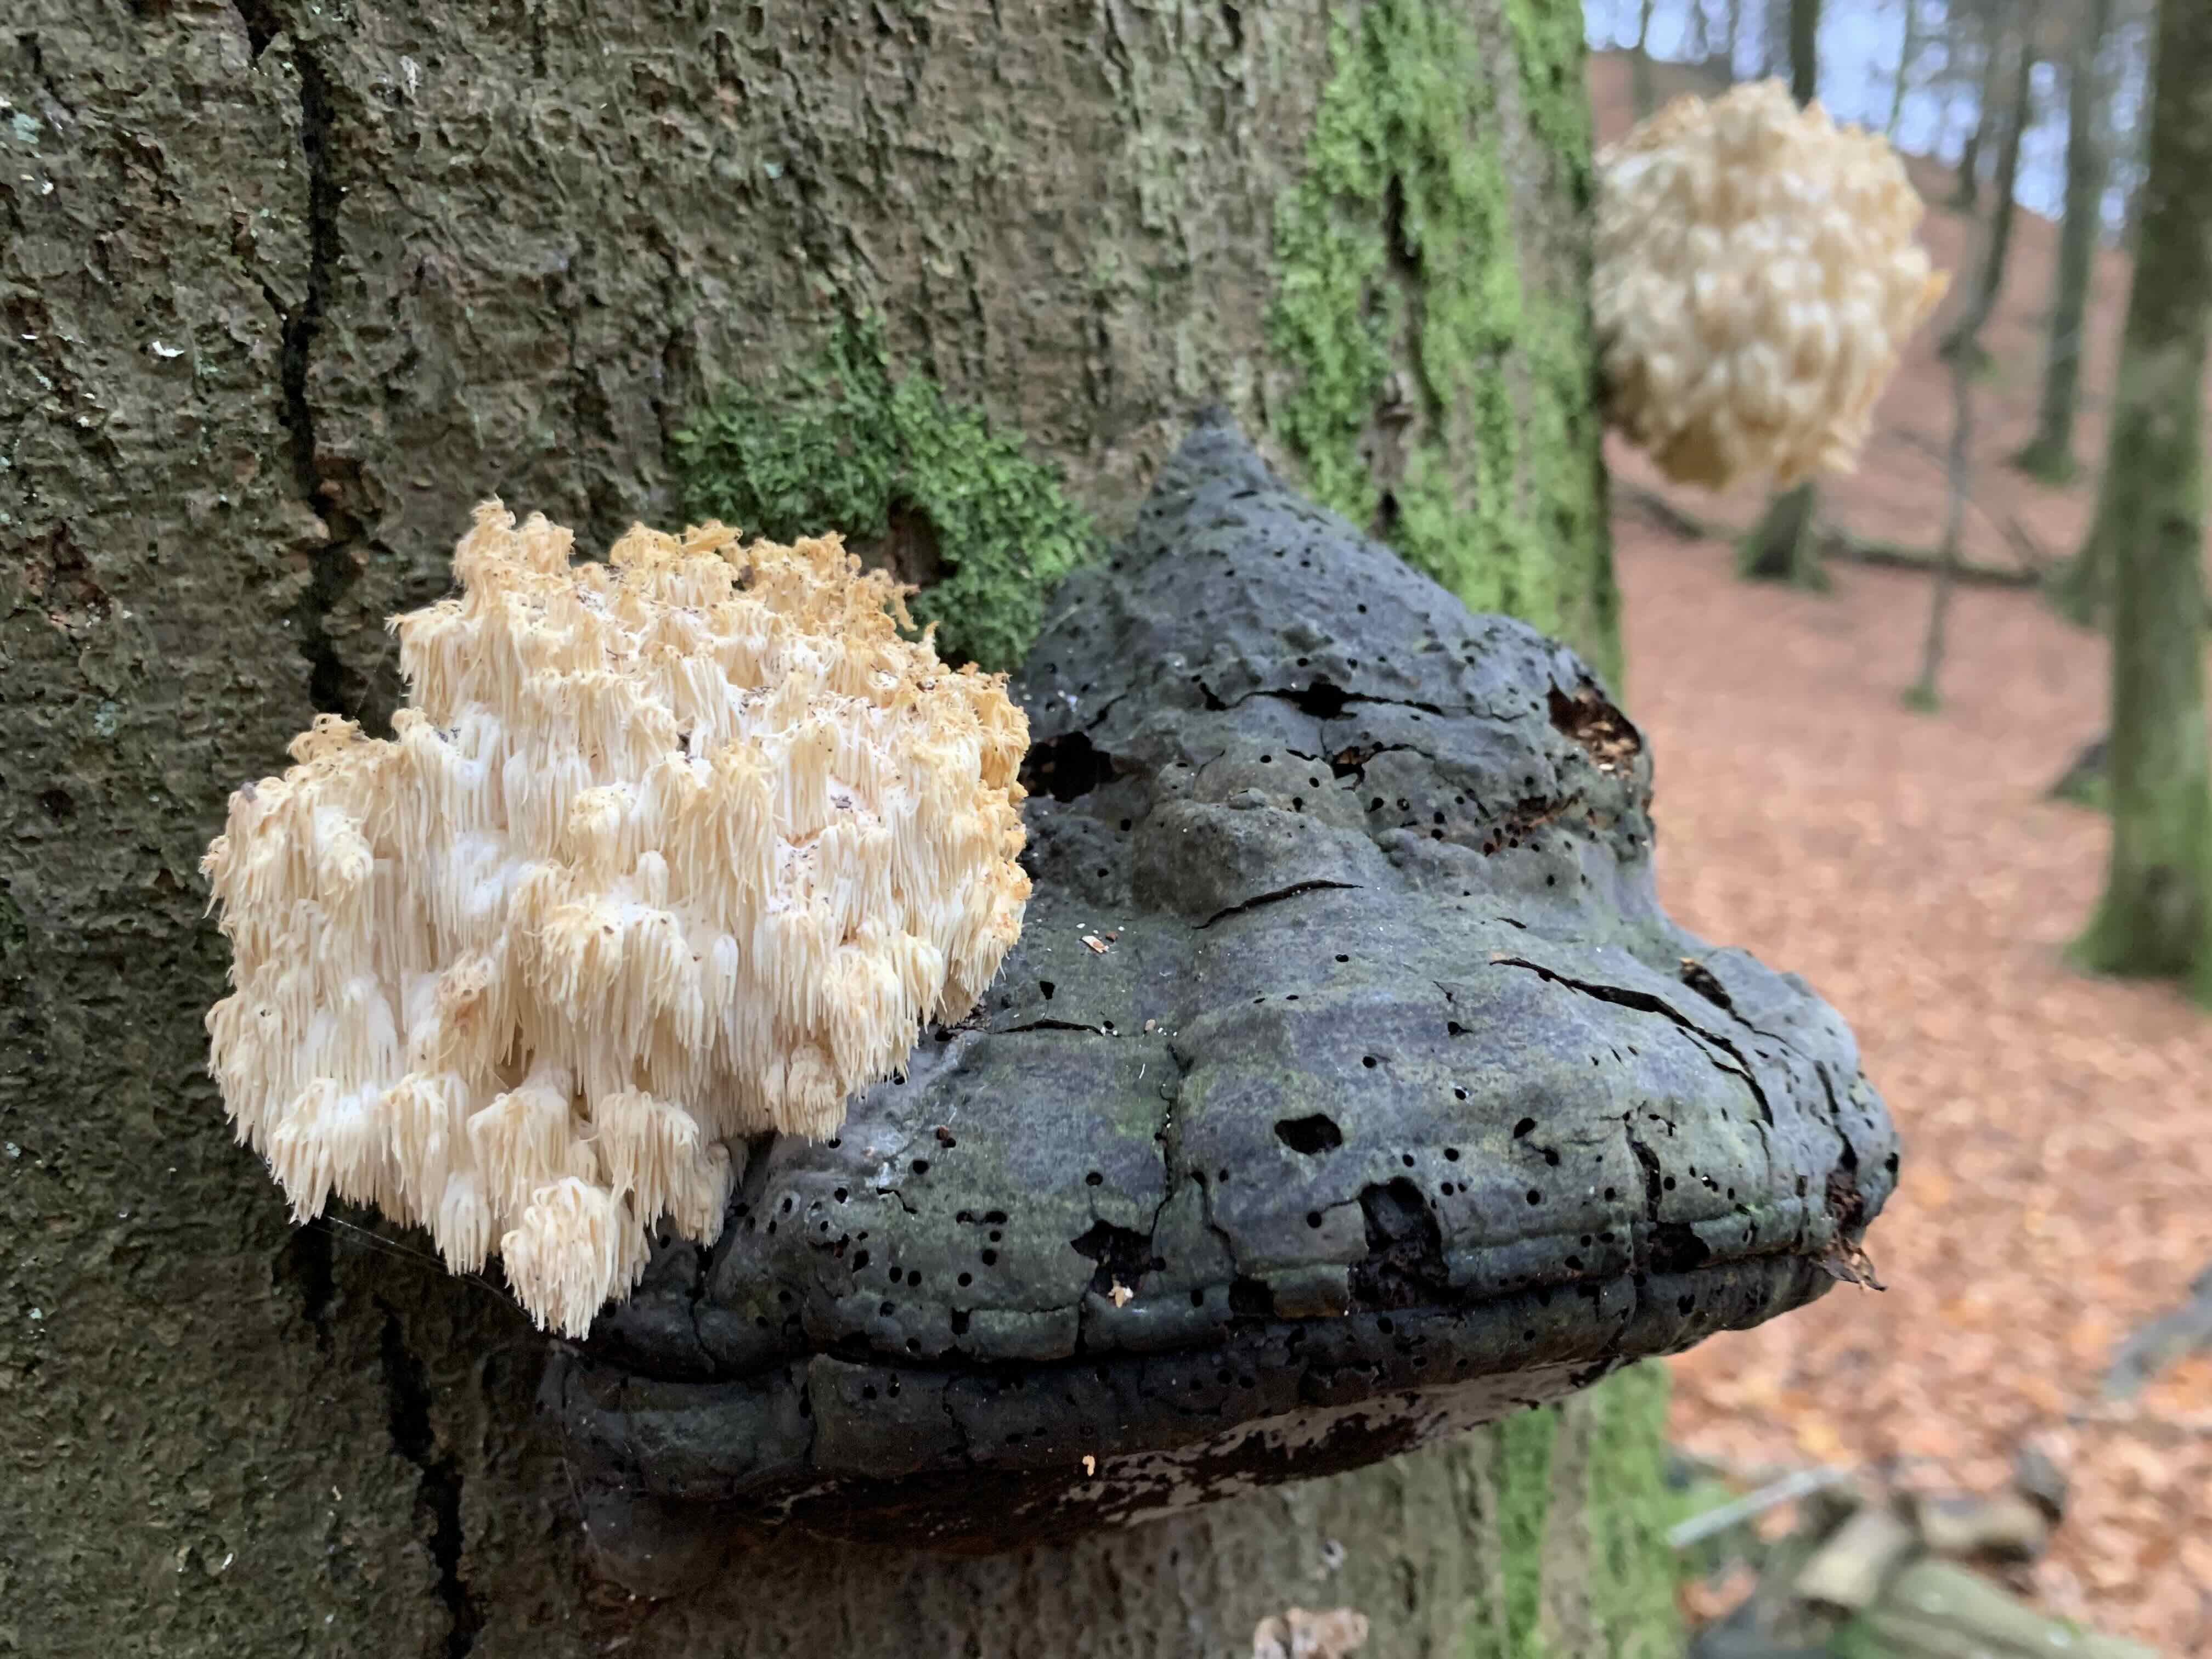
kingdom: Fungi
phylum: Basidiomycota
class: Agaricomycetes
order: Russulales
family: Hericiaceae
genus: Hericium
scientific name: Hericium coralloides
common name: koralpigsvamp
